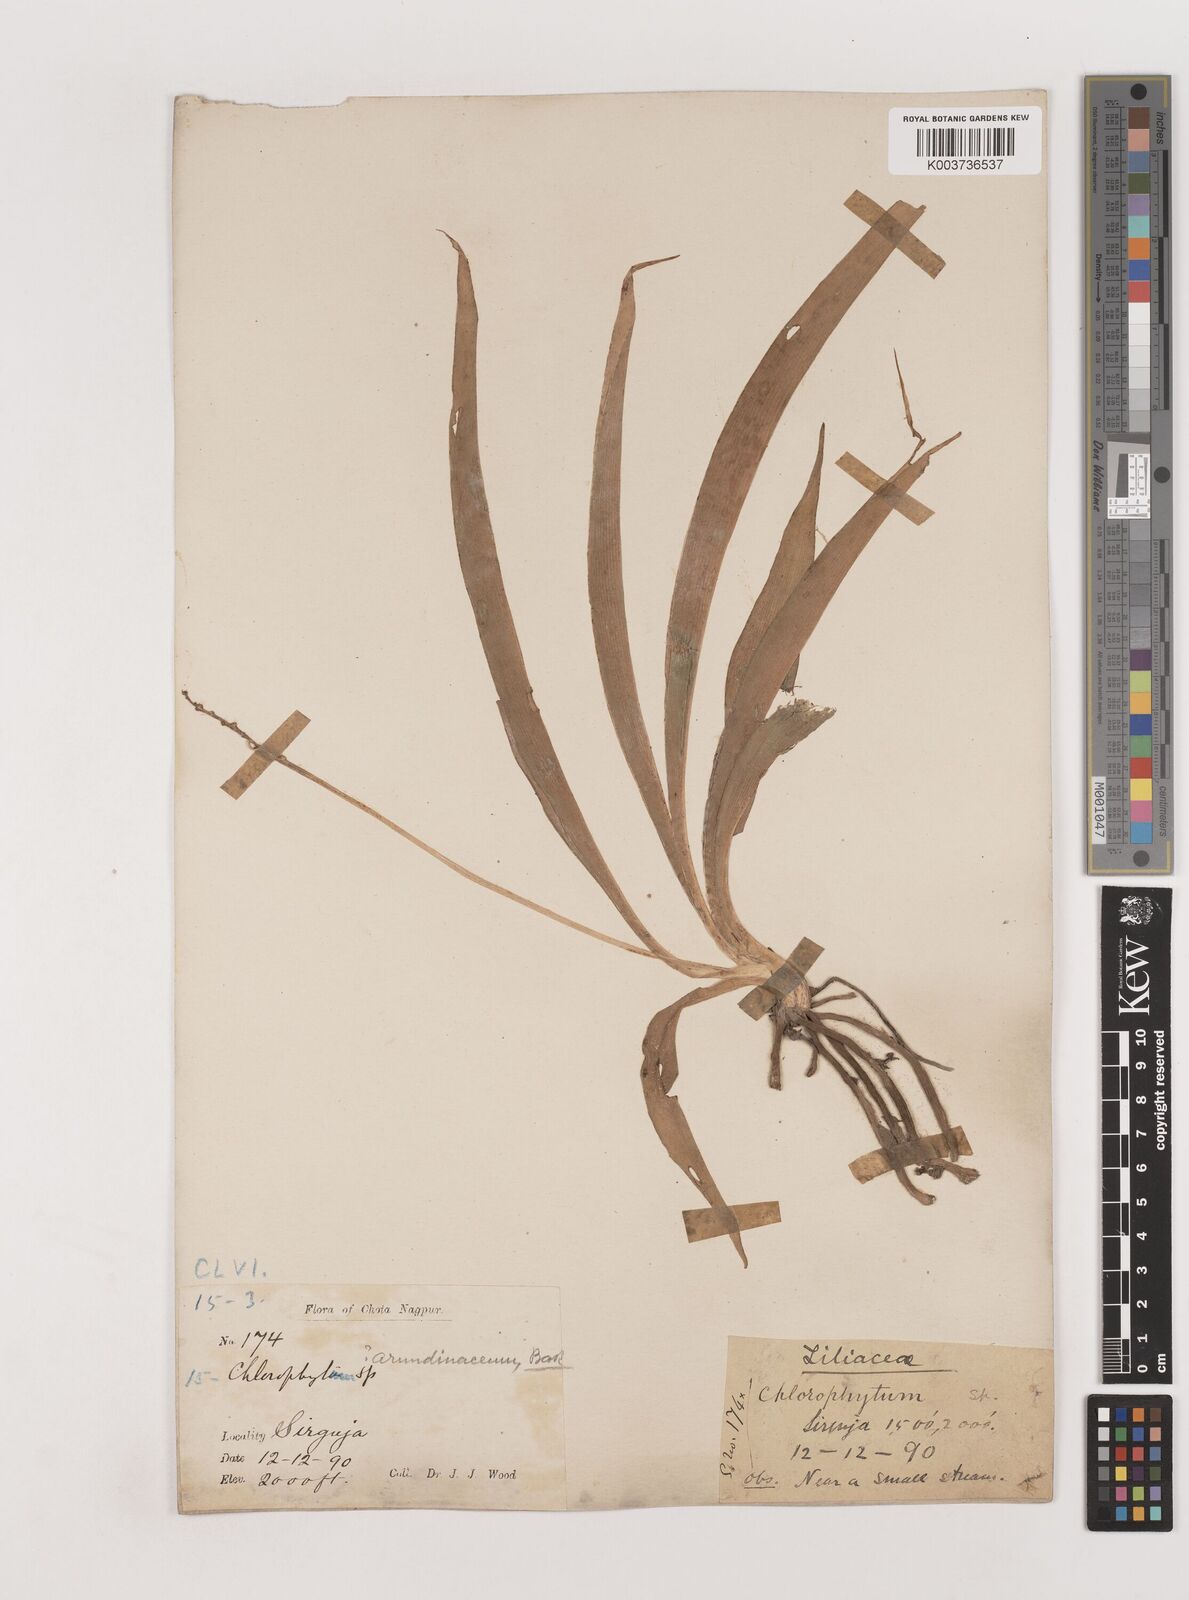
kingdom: Plantae
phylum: Tracheophyta
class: Liliopsida
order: Asparagales
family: Asparagaceae
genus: Chlorophytum
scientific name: Chlorophytum arundinaceum
